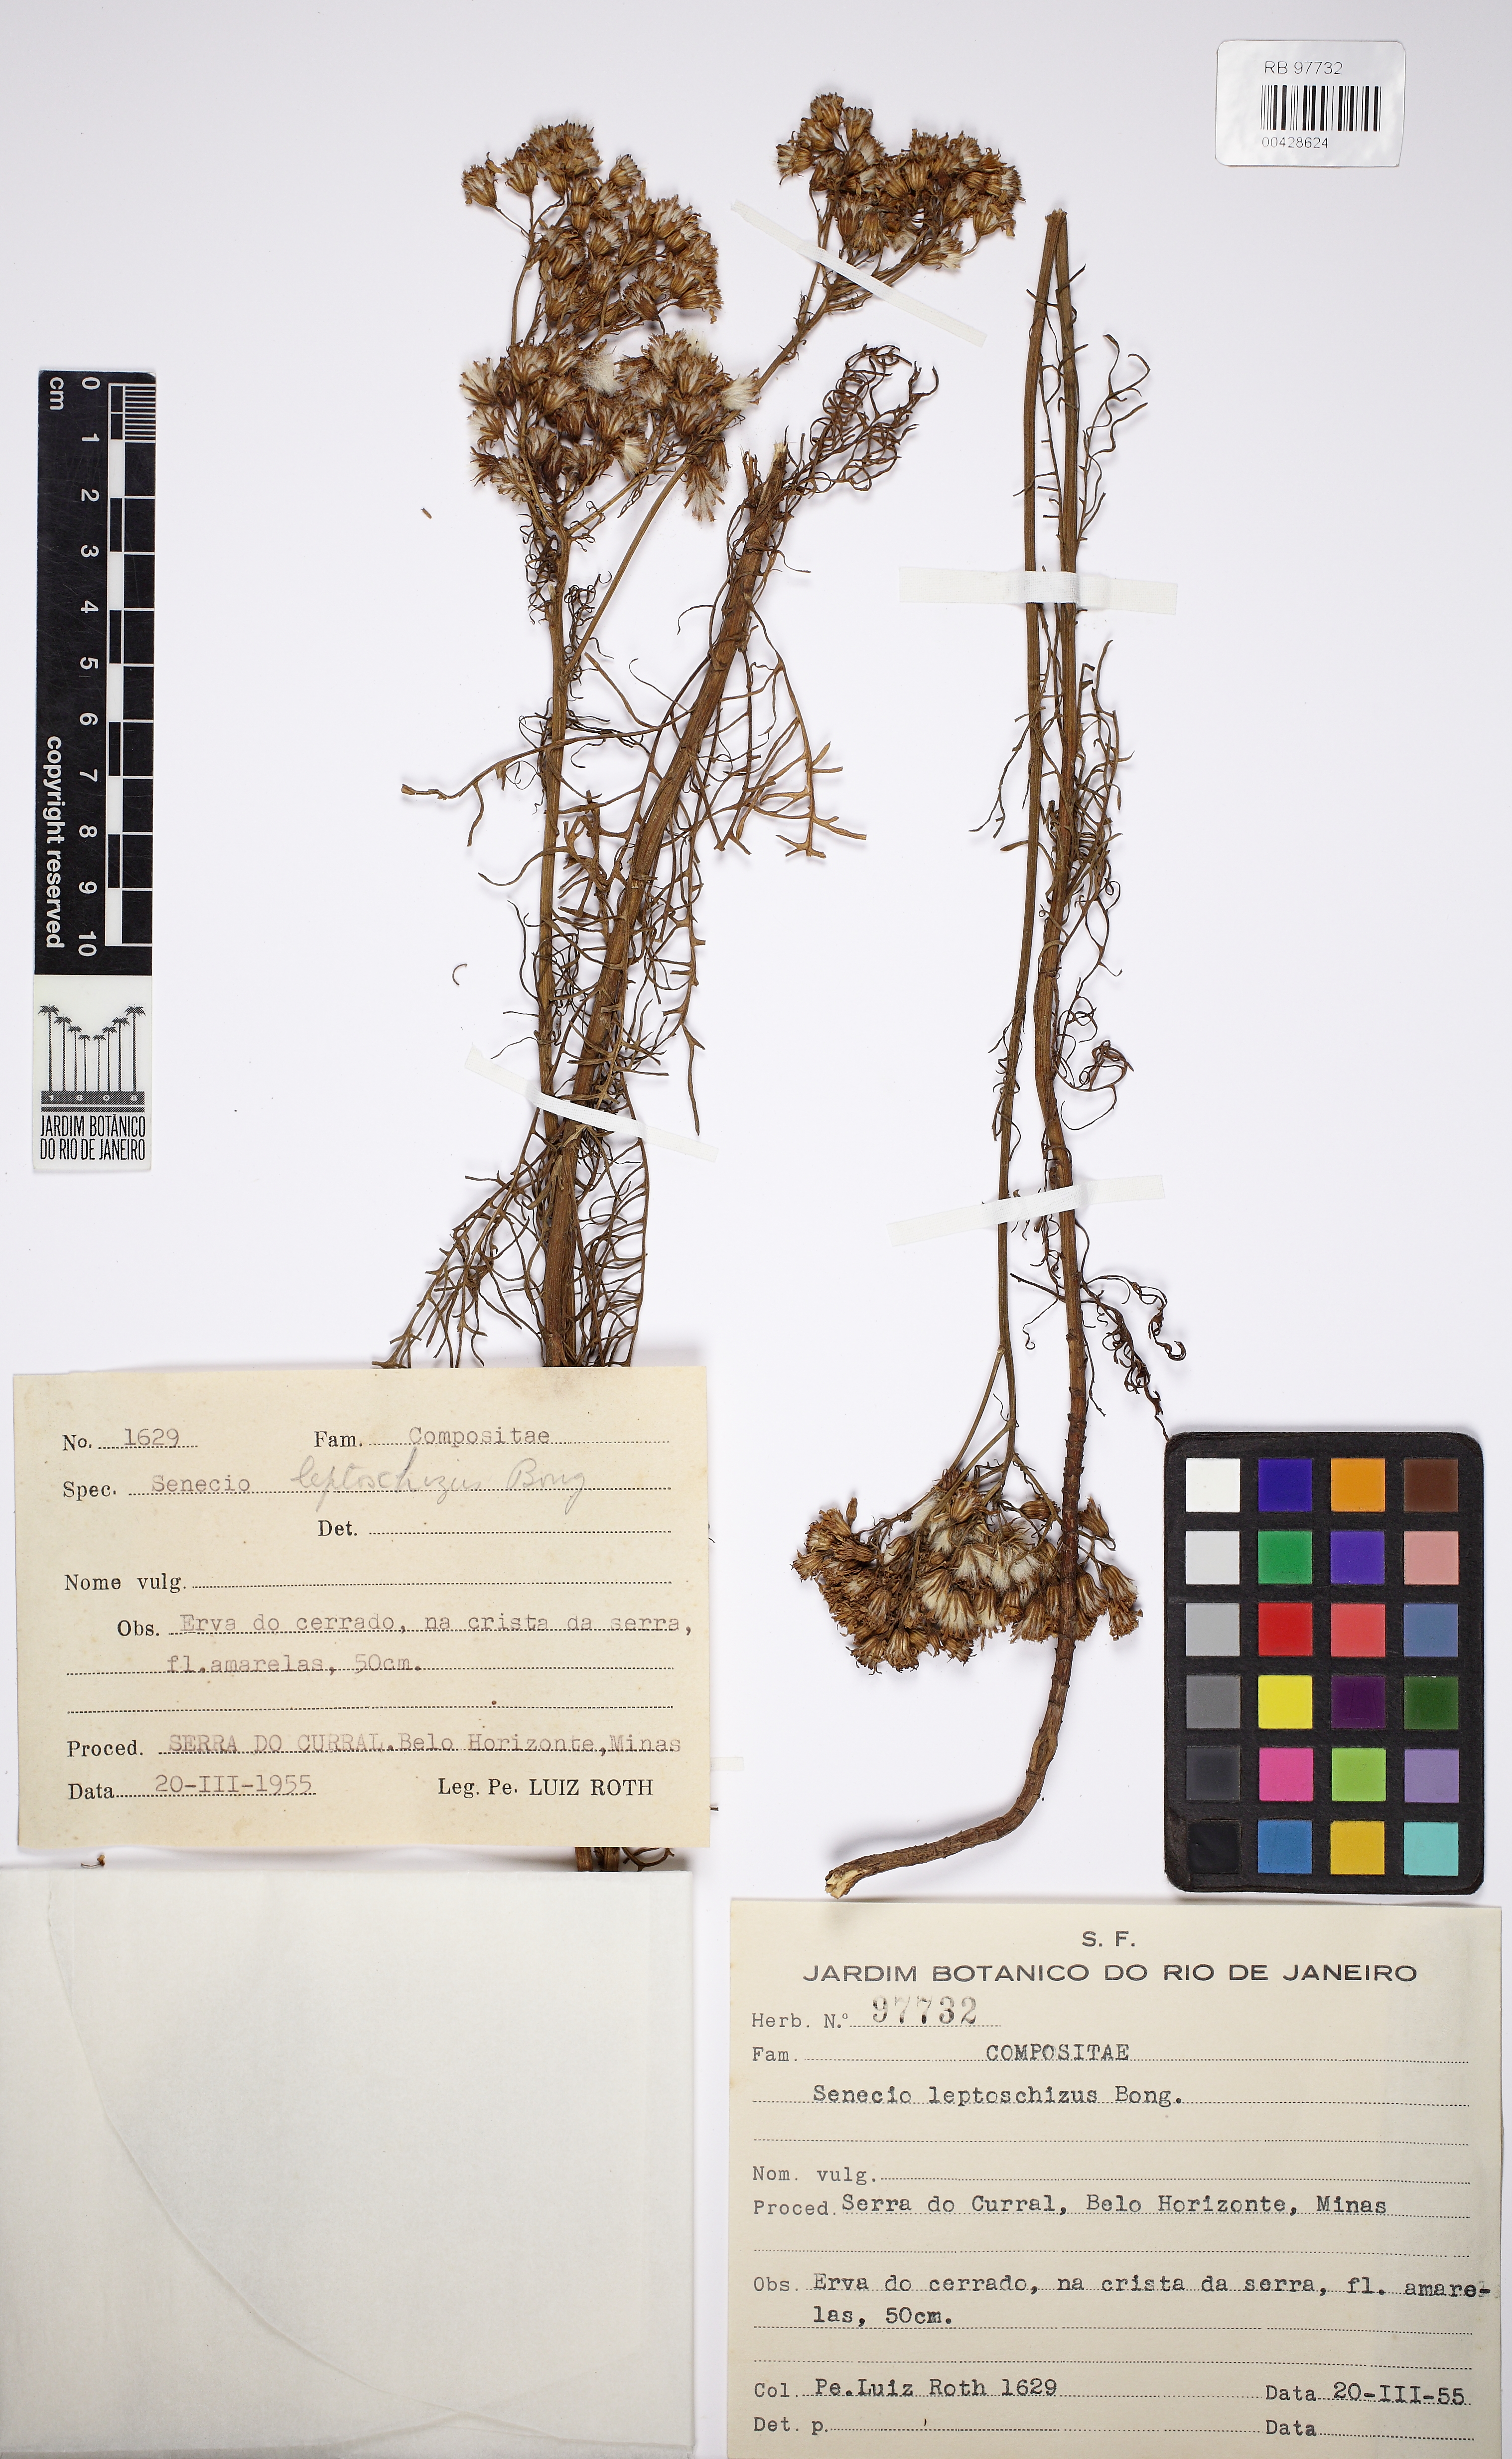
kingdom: Plantae
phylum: Tracheophyta
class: Magnoliopsida
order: Asterales
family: Asteraceae
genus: Senecio
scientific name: Senecio leptoschizus
